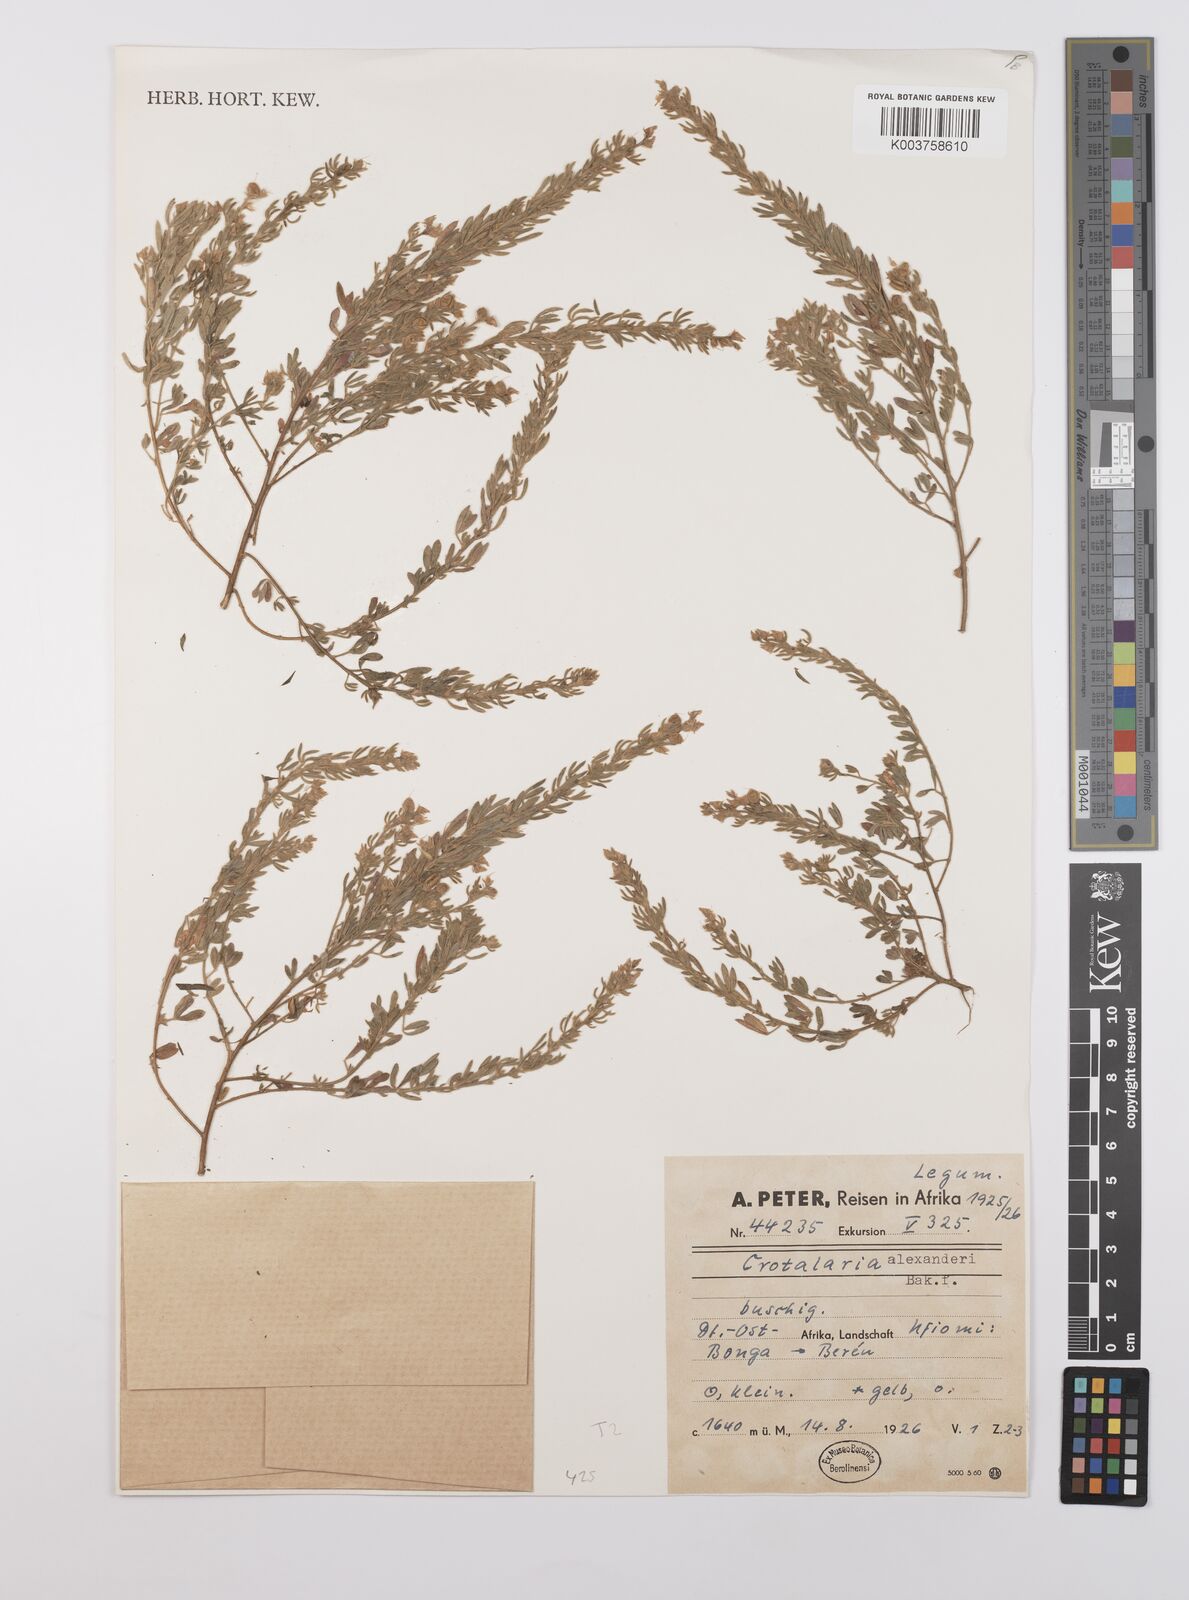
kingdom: Plantae
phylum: Tracheophyta
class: Magnoliopsida
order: Fabales
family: Fabaceae
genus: Crotalaria
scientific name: Crotalaria alexandri
